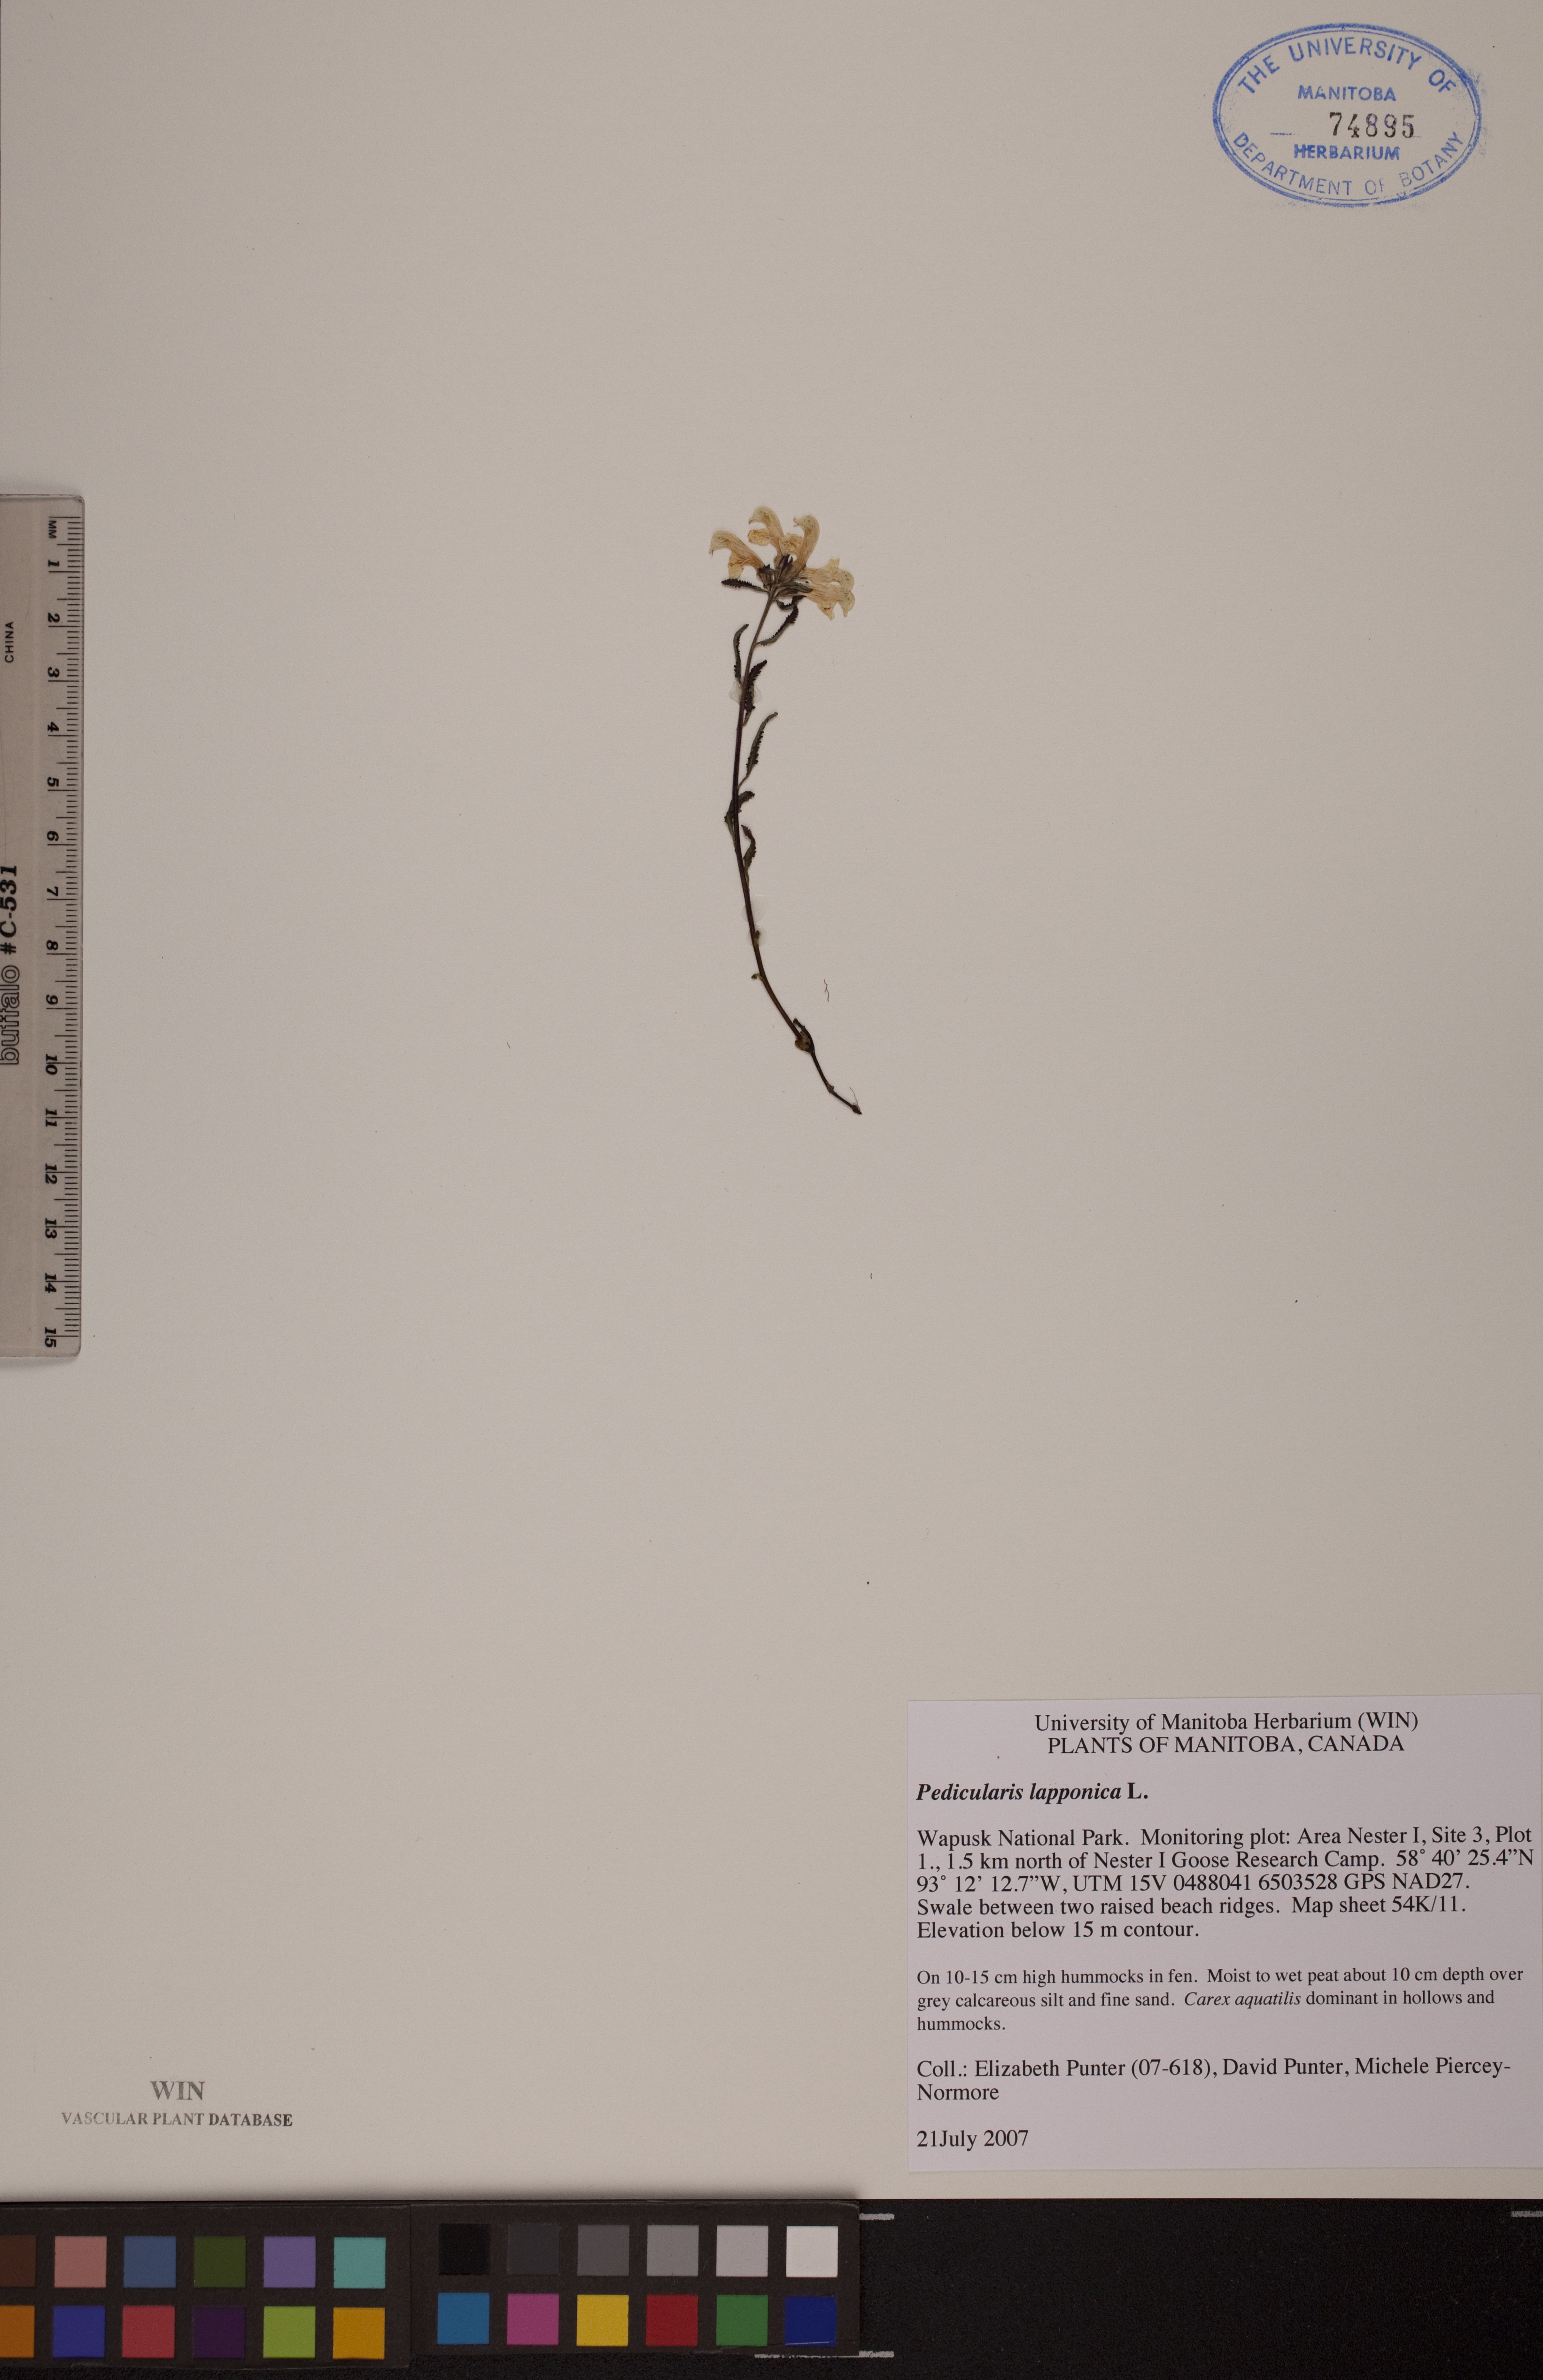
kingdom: Plantae
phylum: Tracheophyta
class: Magnoliopsida
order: Lamiales
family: Orobanchaceae
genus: Pedicularis
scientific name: Pedicularis lapponica
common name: Lapland lousewort
